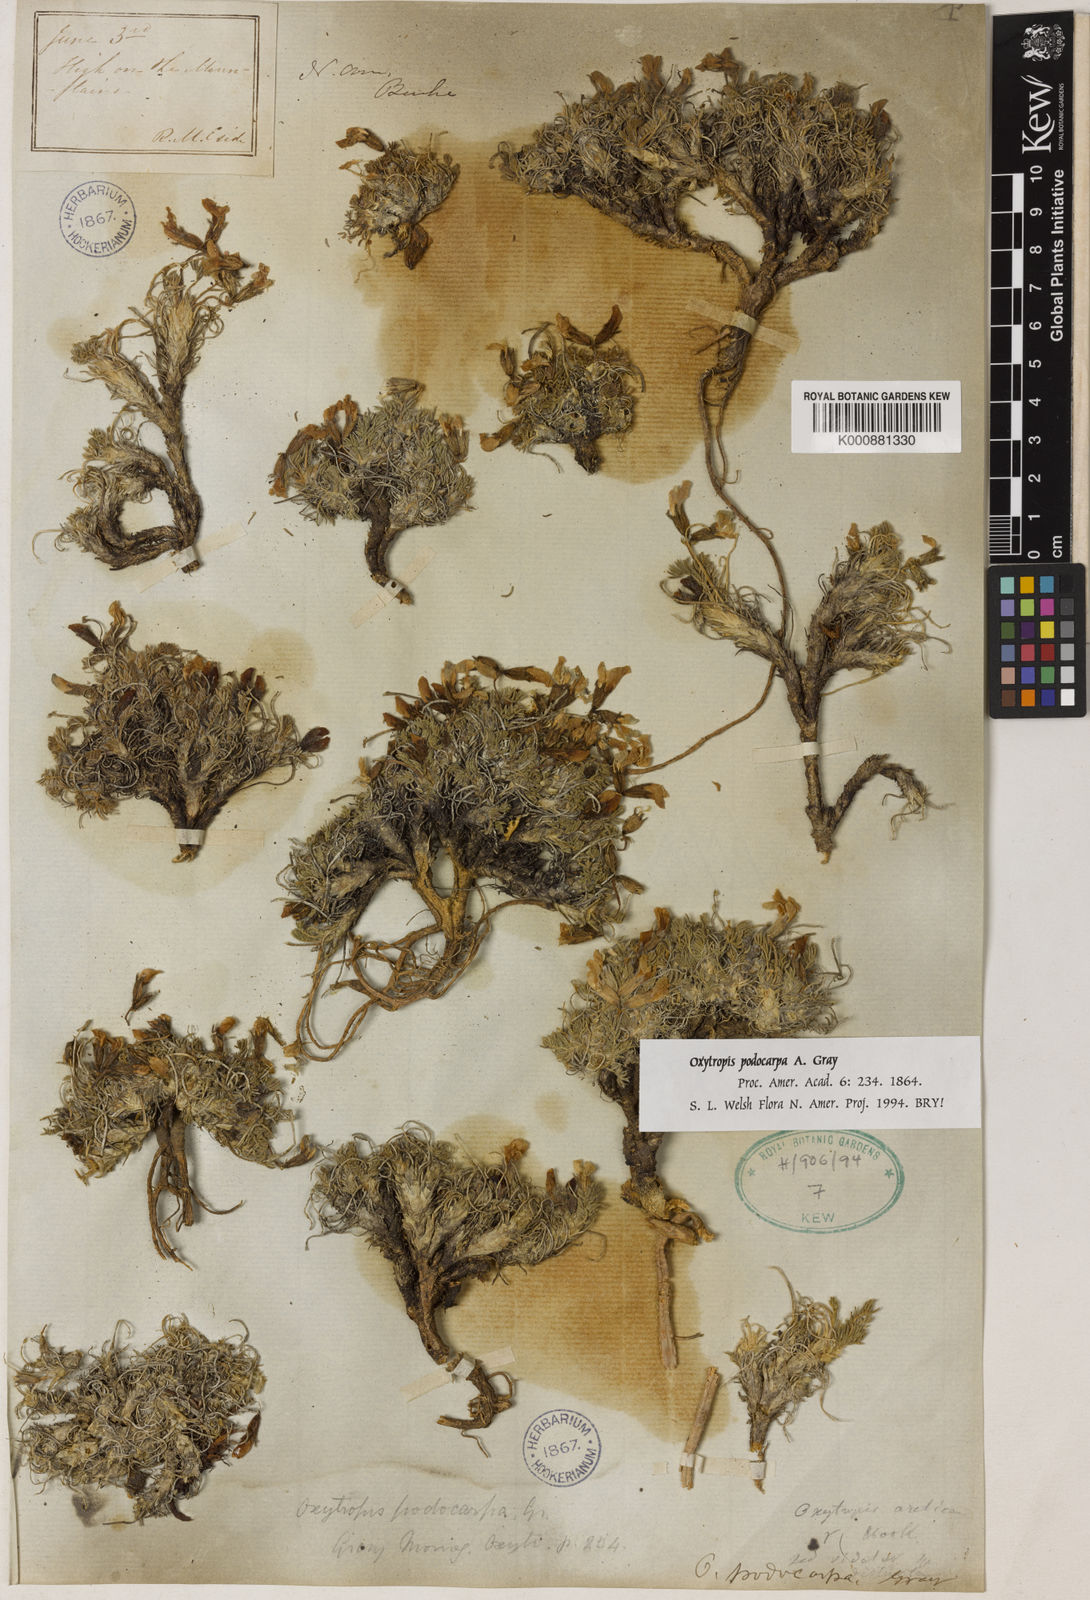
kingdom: Plantae
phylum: Tracheophyta
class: Magnoliopsida
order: Fabales
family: Fabaceae
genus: Oxytropis
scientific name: Oxytropis nigrescens
